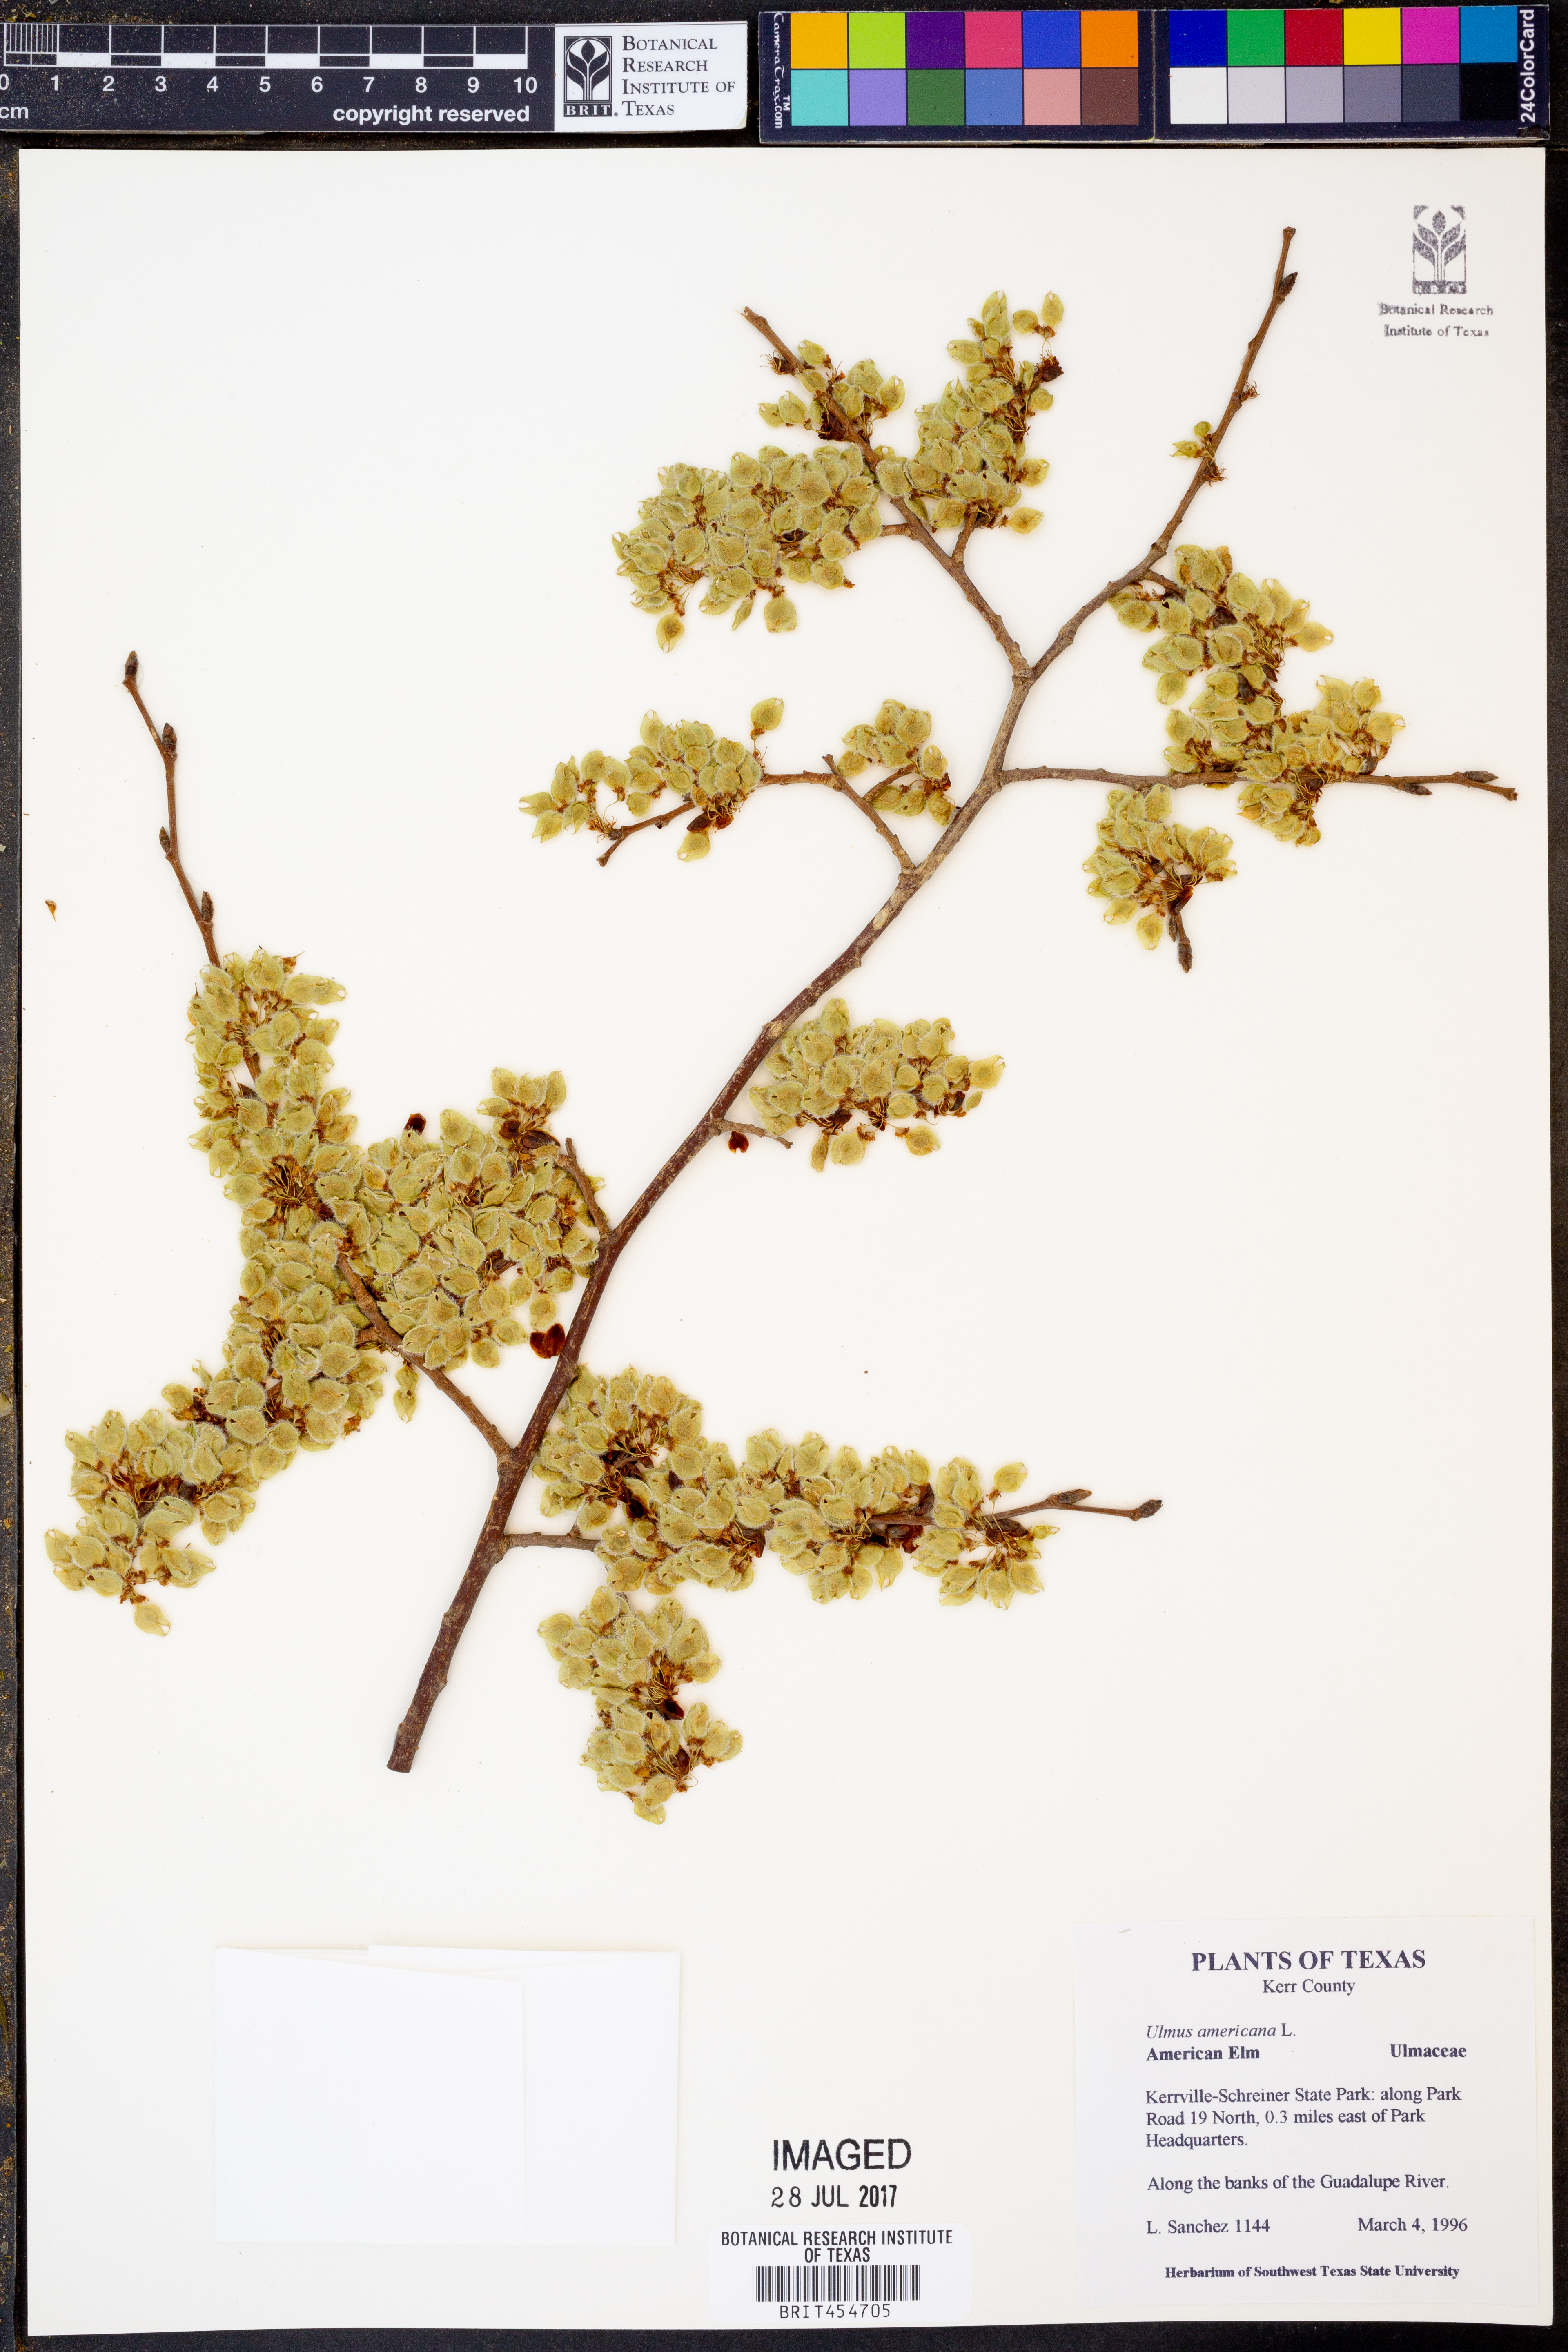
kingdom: Plantae
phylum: Tracheophyta
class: Magnoliopsida
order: Rosales
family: Ulmaceae
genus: Ulmus
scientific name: Ulmus americana
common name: American elm
